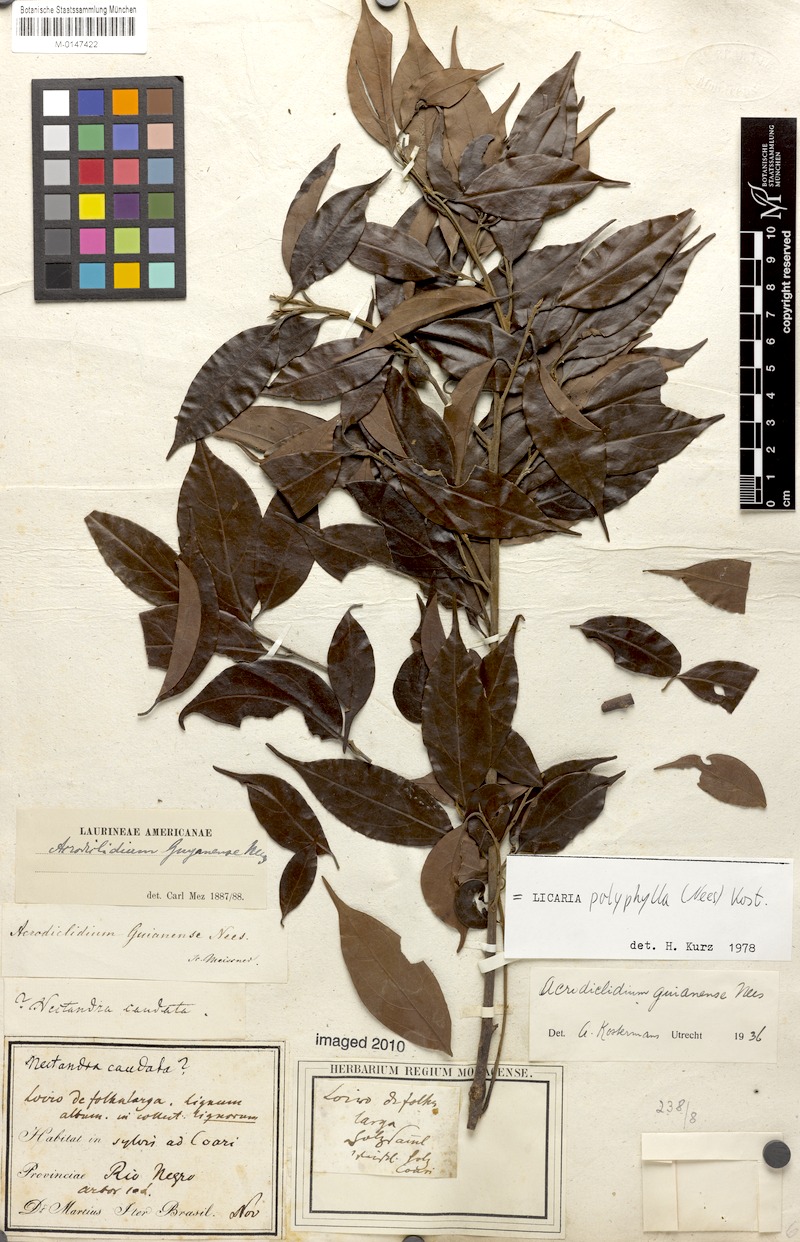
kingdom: Plantae
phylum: Tracheophyta
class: Magnoliopsida
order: Laurales
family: Lauraceae
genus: Licaria
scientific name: Licaria polyphylla
